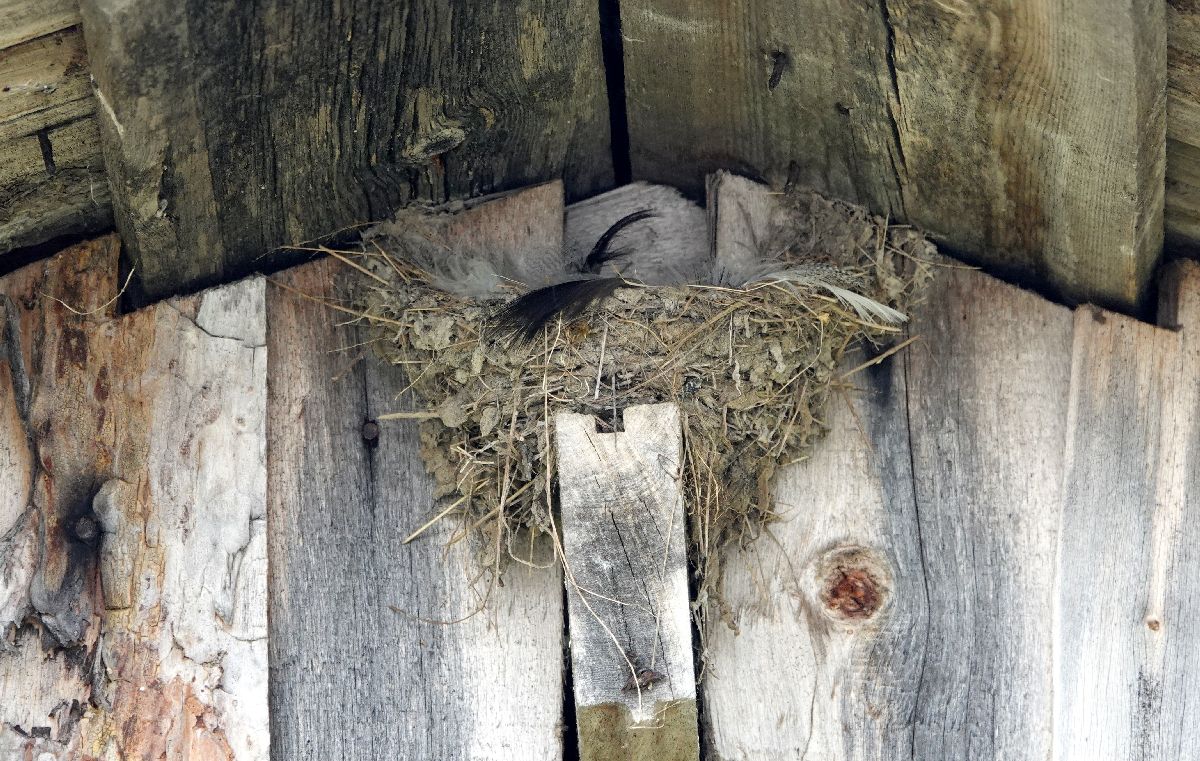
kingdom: Animalia
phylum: Chordata
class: Aves
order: Passeriformes
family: Hirundinidae
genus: Hirundo
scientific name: Hirundo rustica
